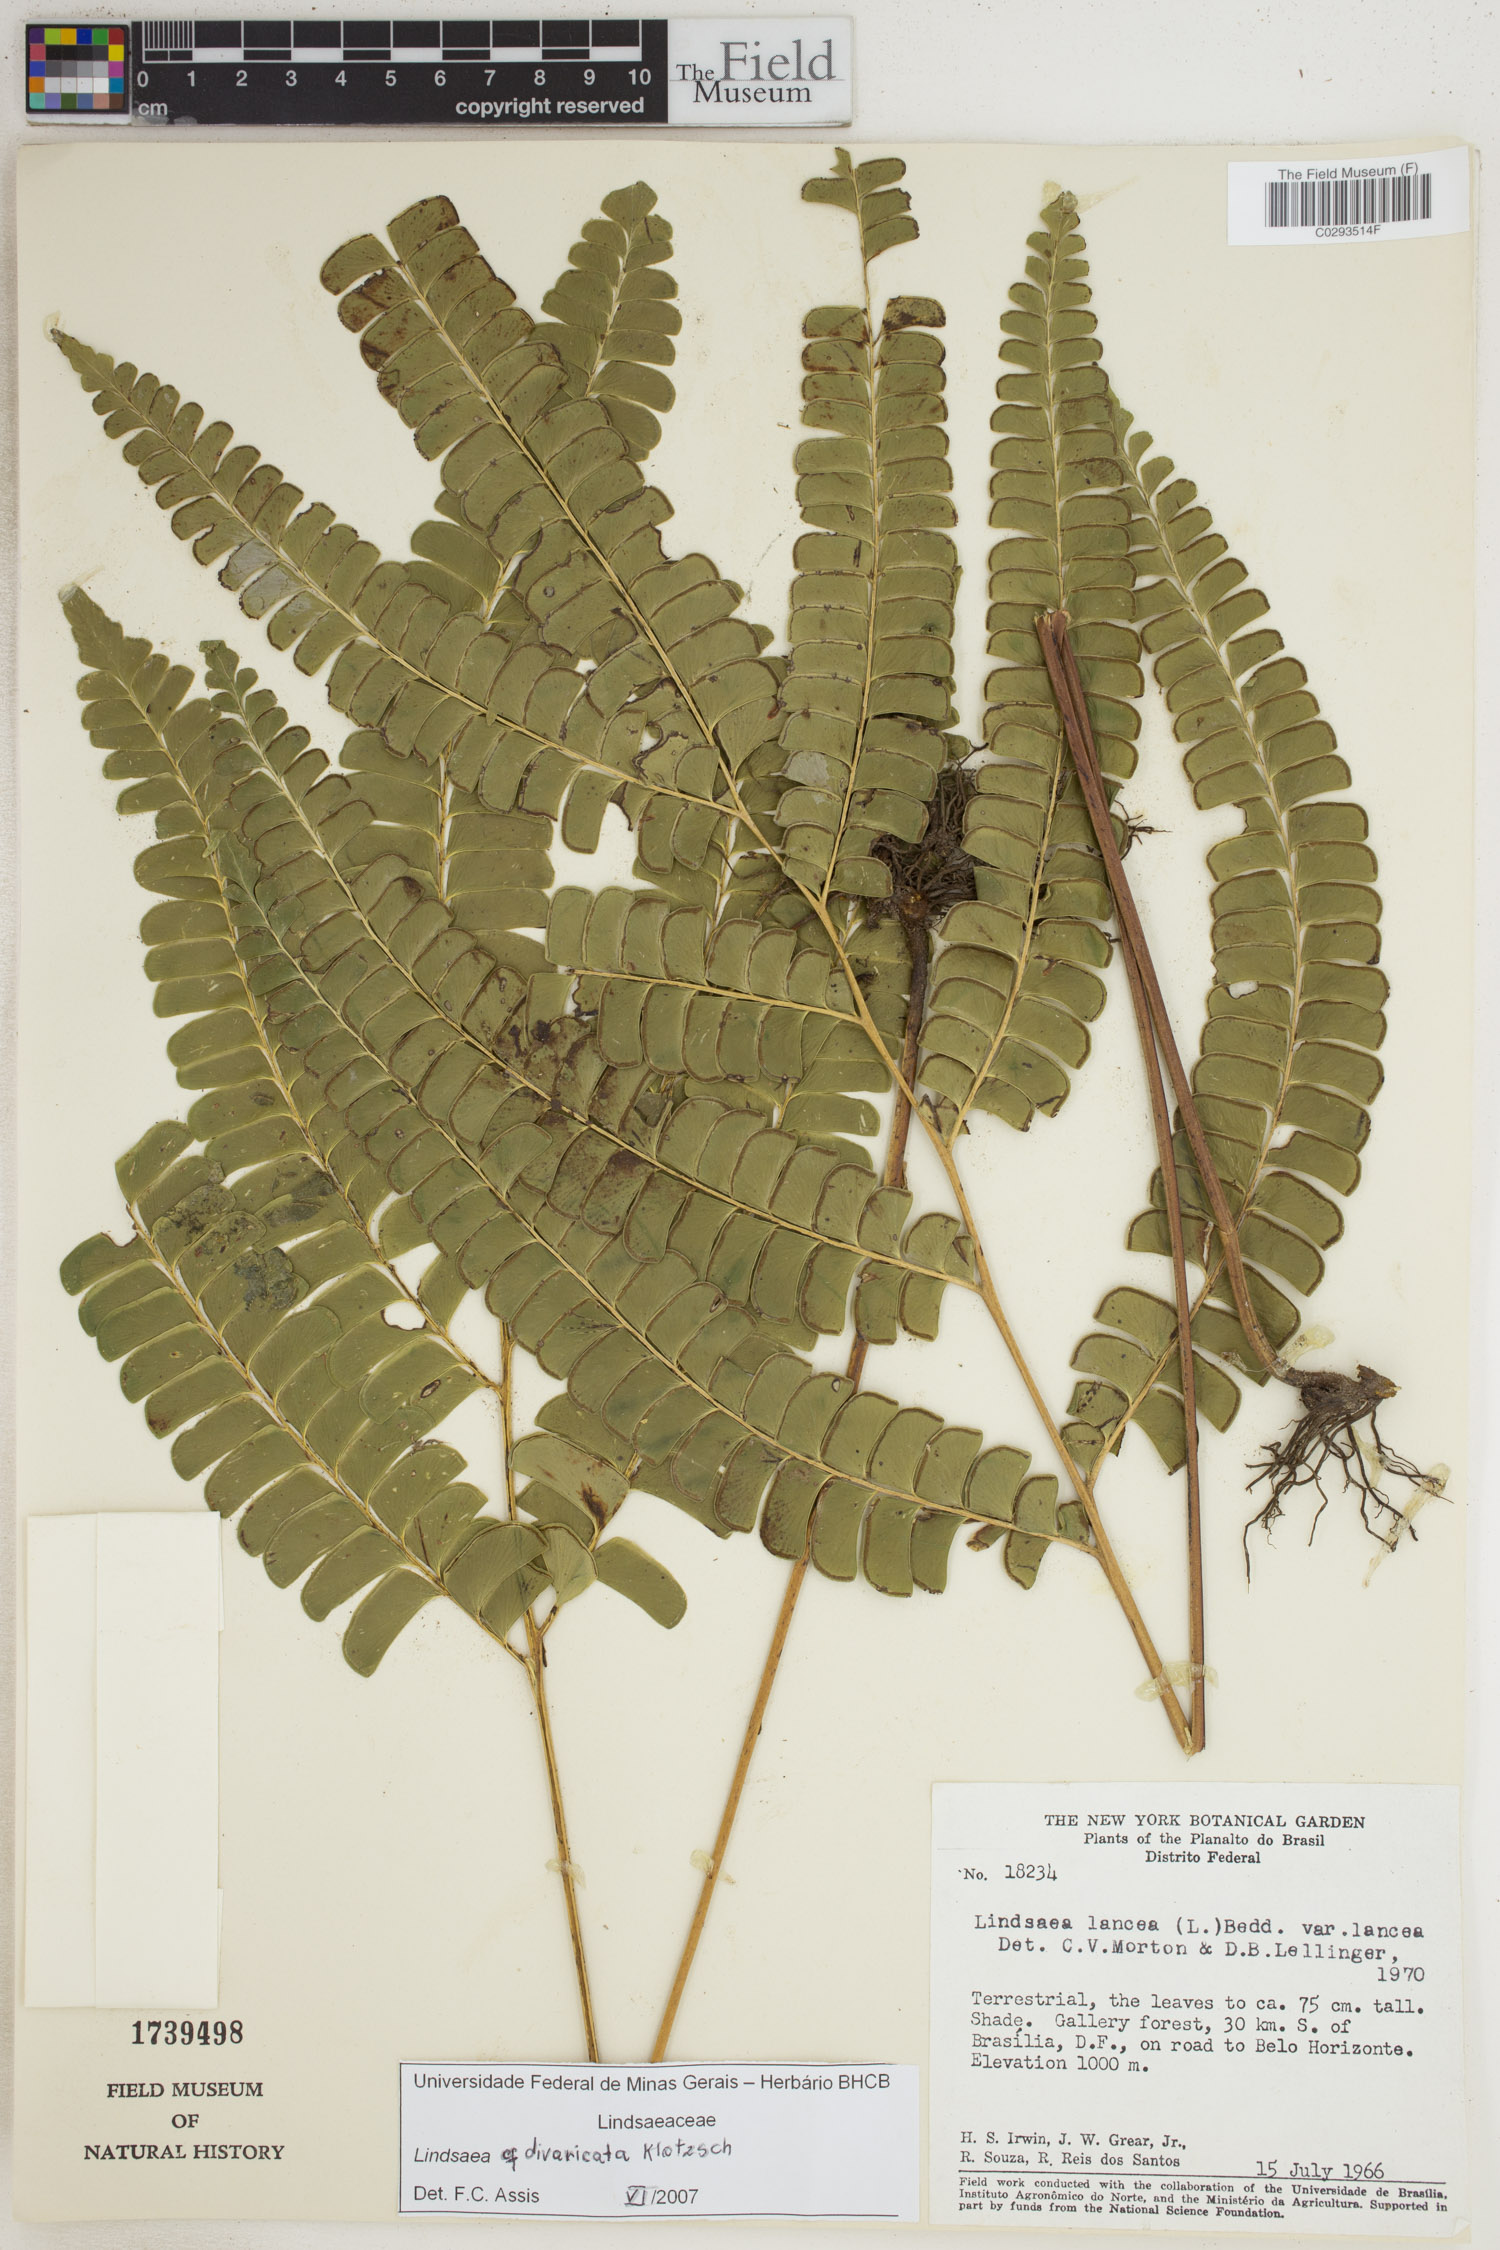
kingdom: Plantae
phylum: Tracheophyta
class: Polypodiopsida
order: Polypodiales
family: Lindsaeaceae
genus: Lindsaea
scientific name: Lindsaea divaricata
